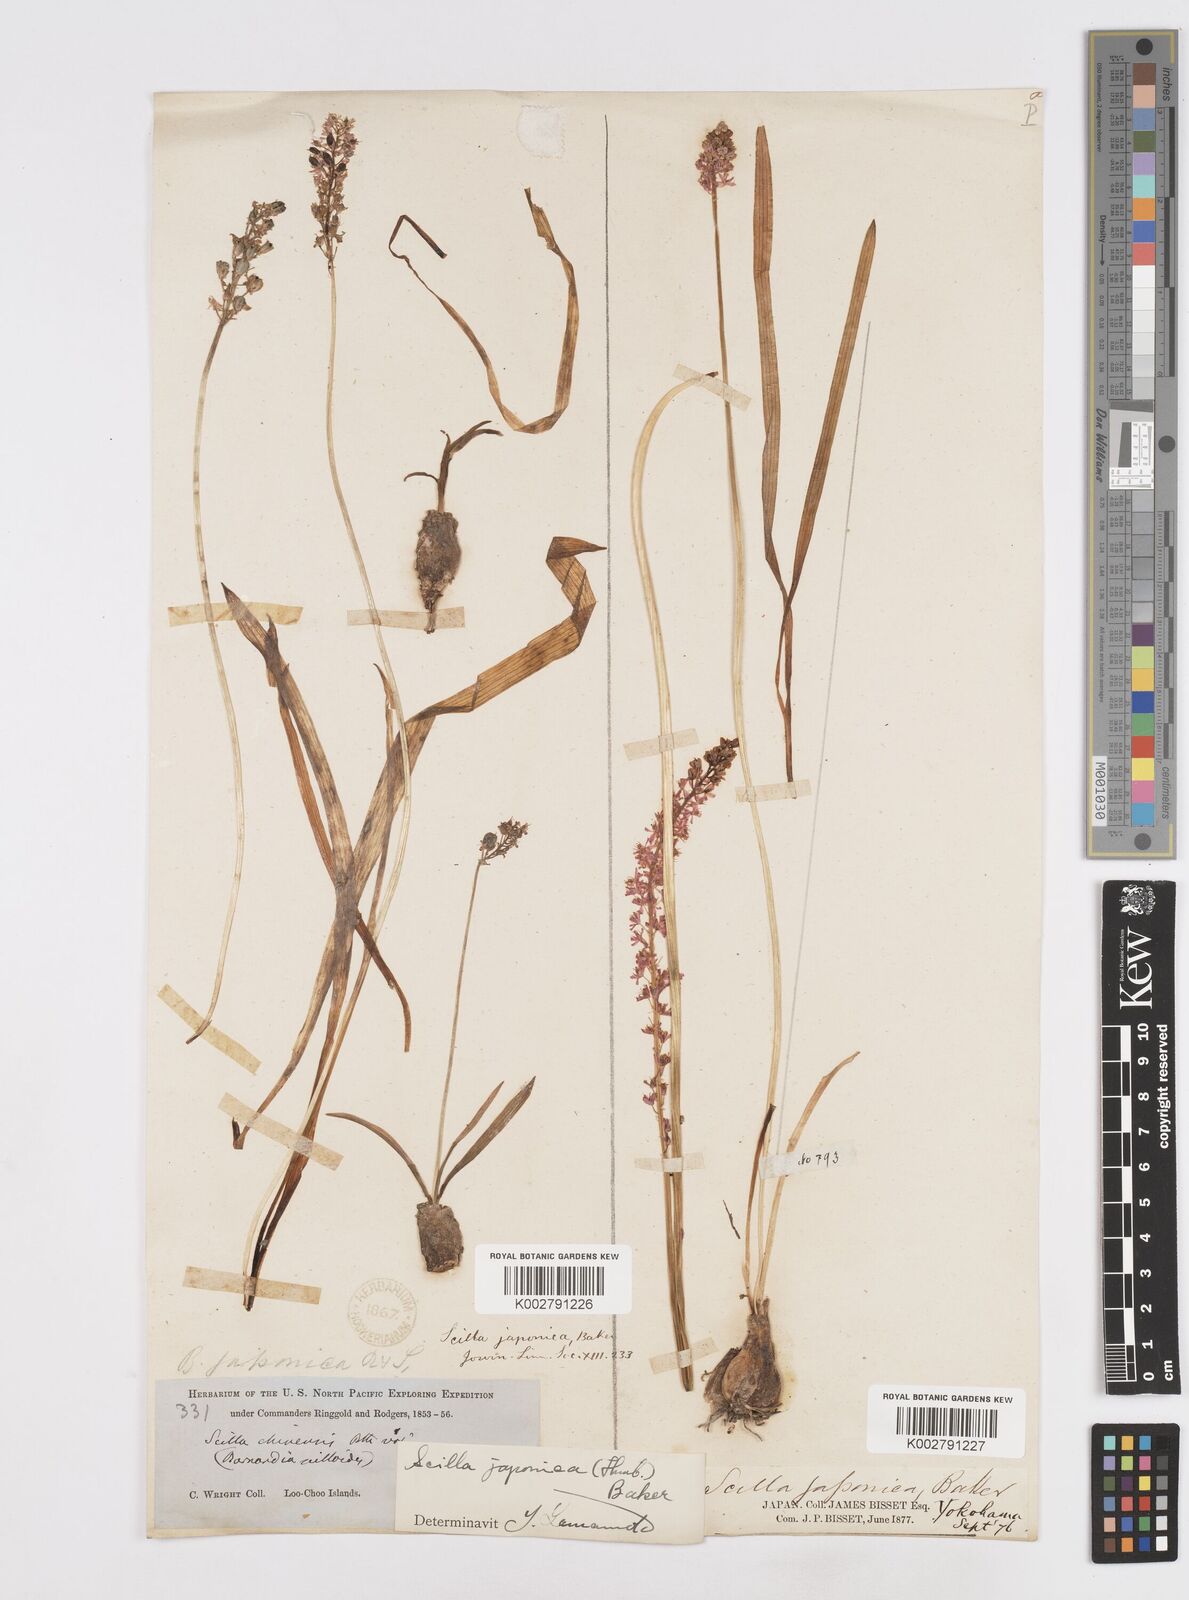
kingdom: Plantae
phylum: Tracheophyta
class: Liliopsida
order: Liliales
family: Melanthiaceae
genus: Helonias
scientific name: Helonias breviscapa
